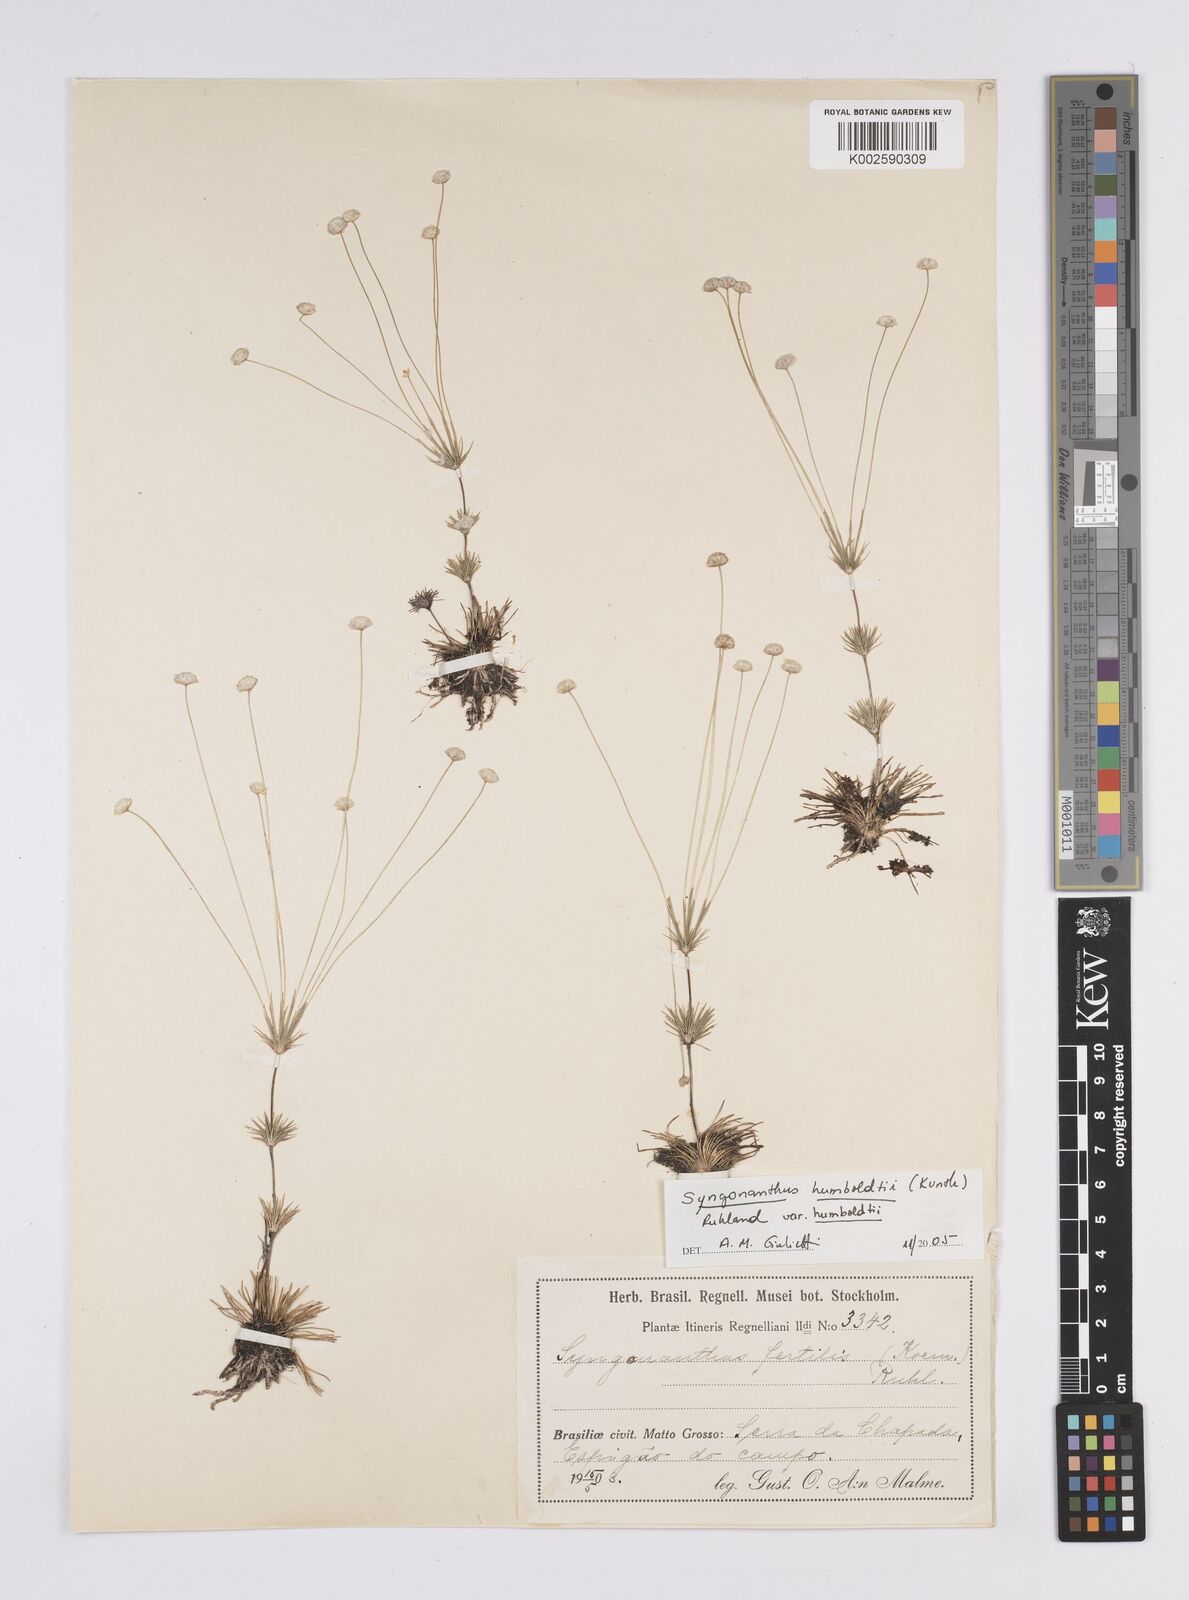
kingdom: Plantae
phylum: Tracheophyta
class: Liliopsida
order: Poales
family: Eriocaulaceae
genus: Syngonanthus
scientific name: Syngonanthus humboldtii
